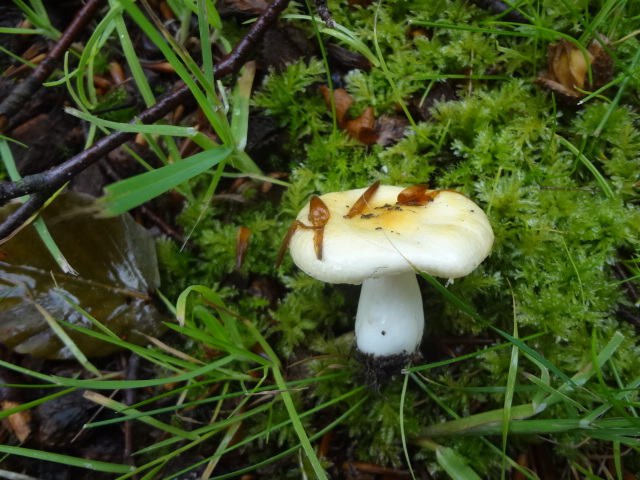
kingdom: Fungi
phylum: Basidiomycota
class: Agaricomycetes
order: Russulales
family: Russulaceae
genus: Russula
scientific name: Russula solaris
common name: sol-skørhat
